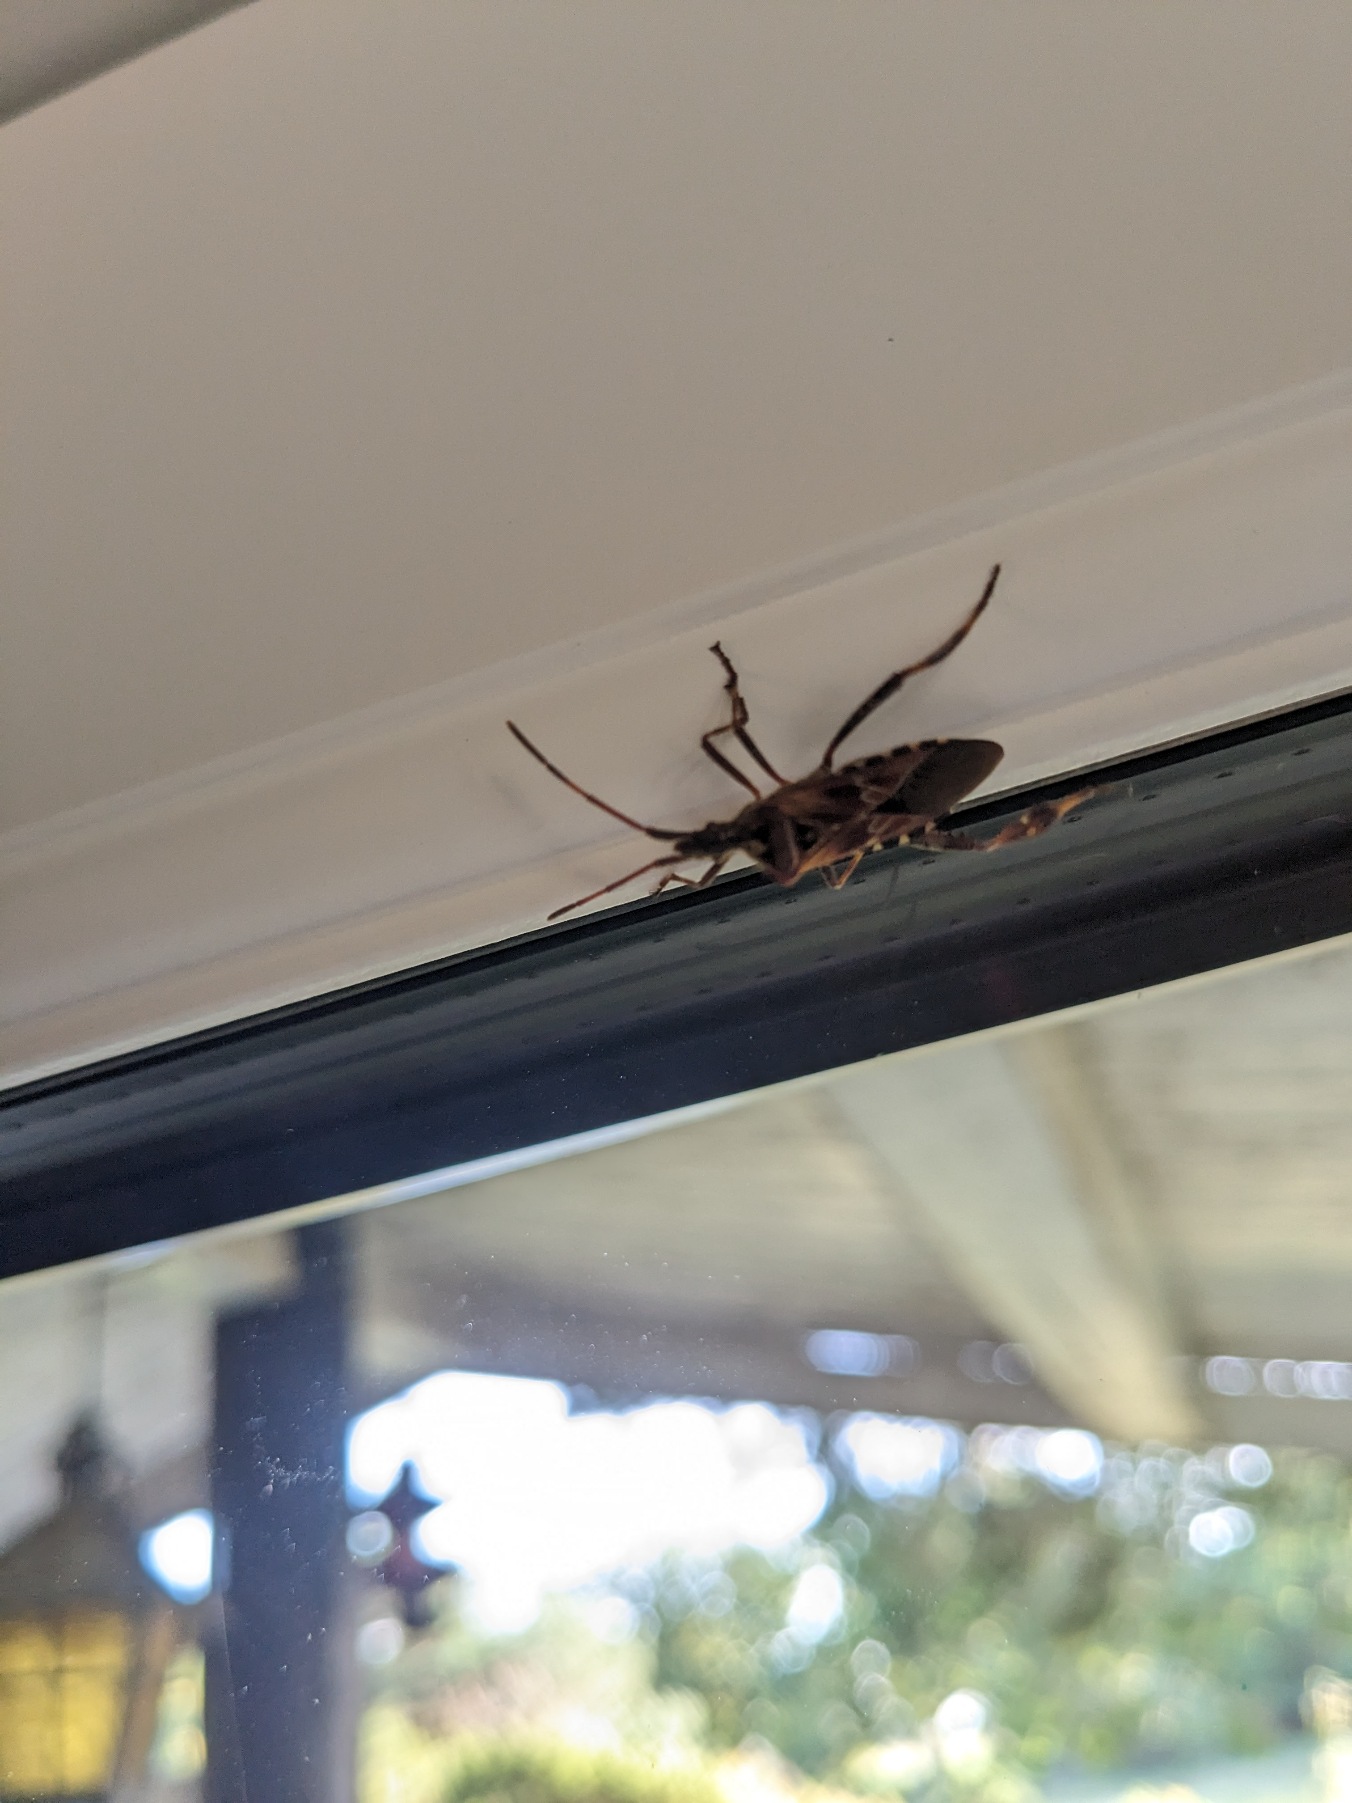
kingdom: Animalia
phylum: Arthropoda
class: Insecta
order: Hemiptera
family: Coreidae
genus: Leptoglossus
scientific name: Leptoglossus occidentalis
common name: Amerikansk fyrretæge
